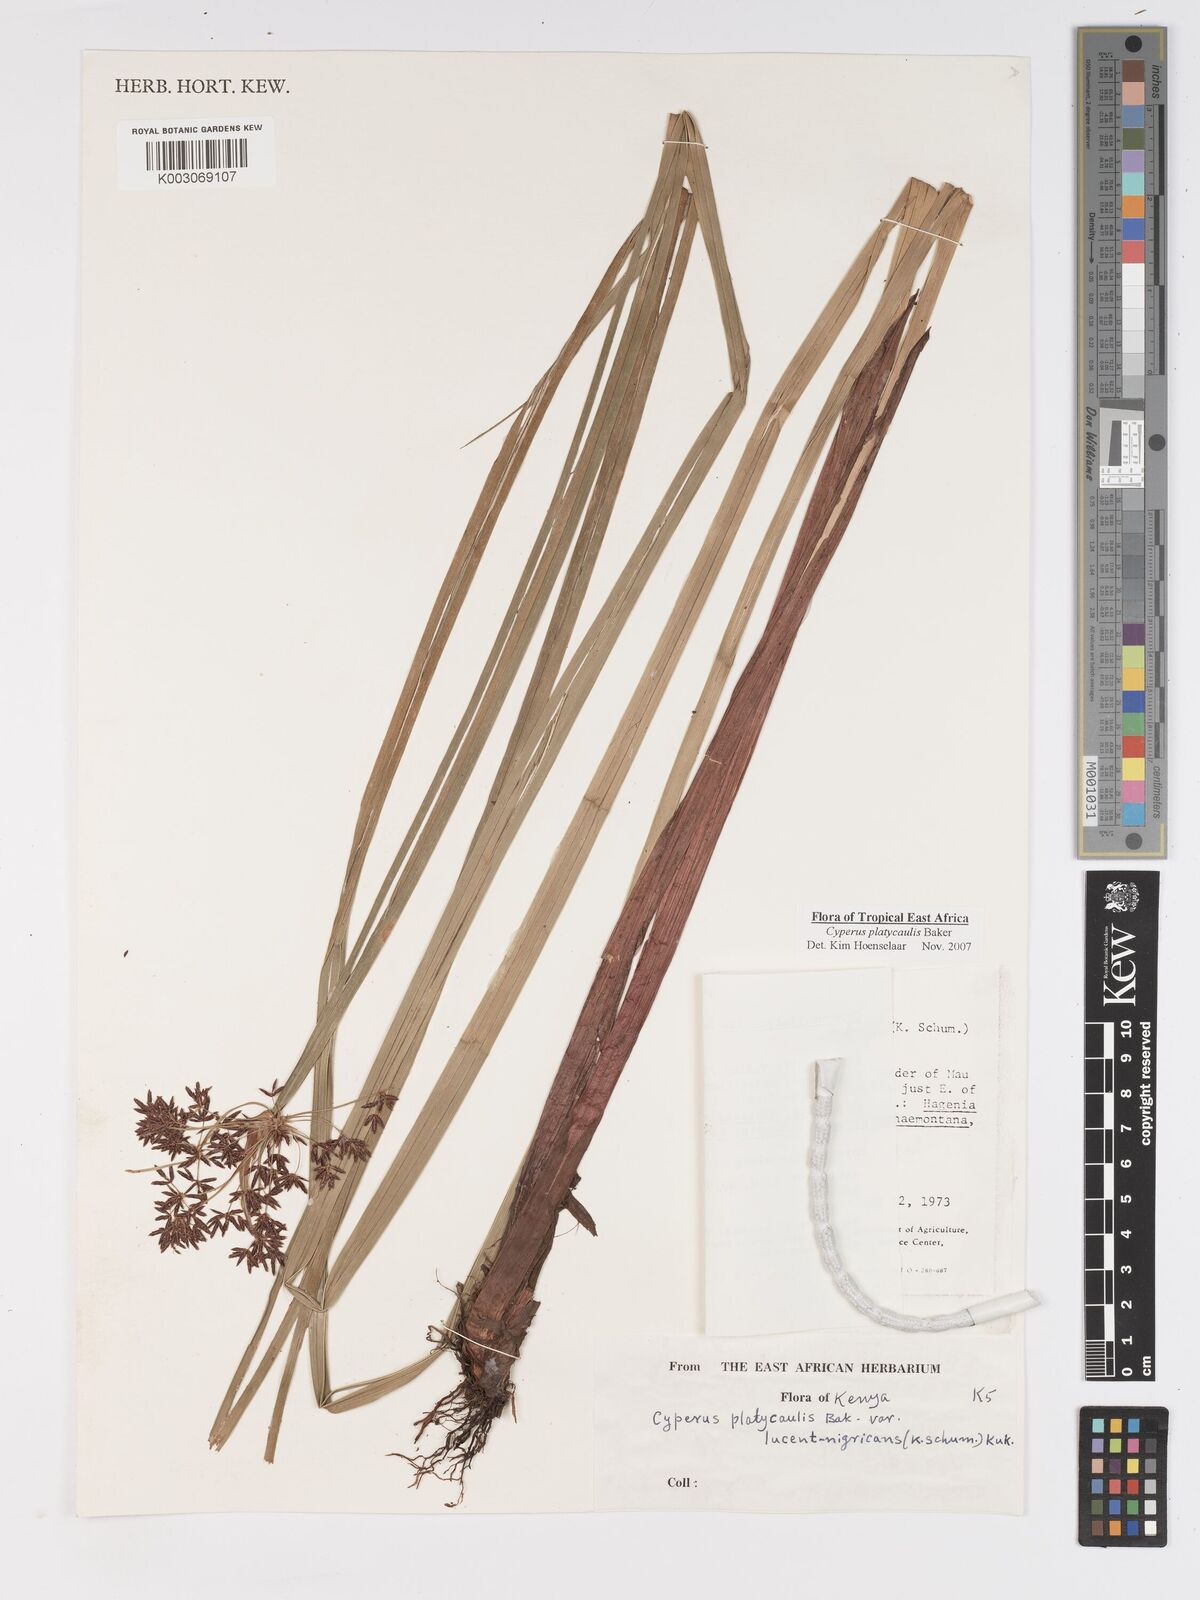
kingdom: Plantae
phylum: Tracheophyta
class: Liliopsida
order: Poales
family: Cyperaceae
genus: Cyperus
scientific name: Cyperus platycaulis
